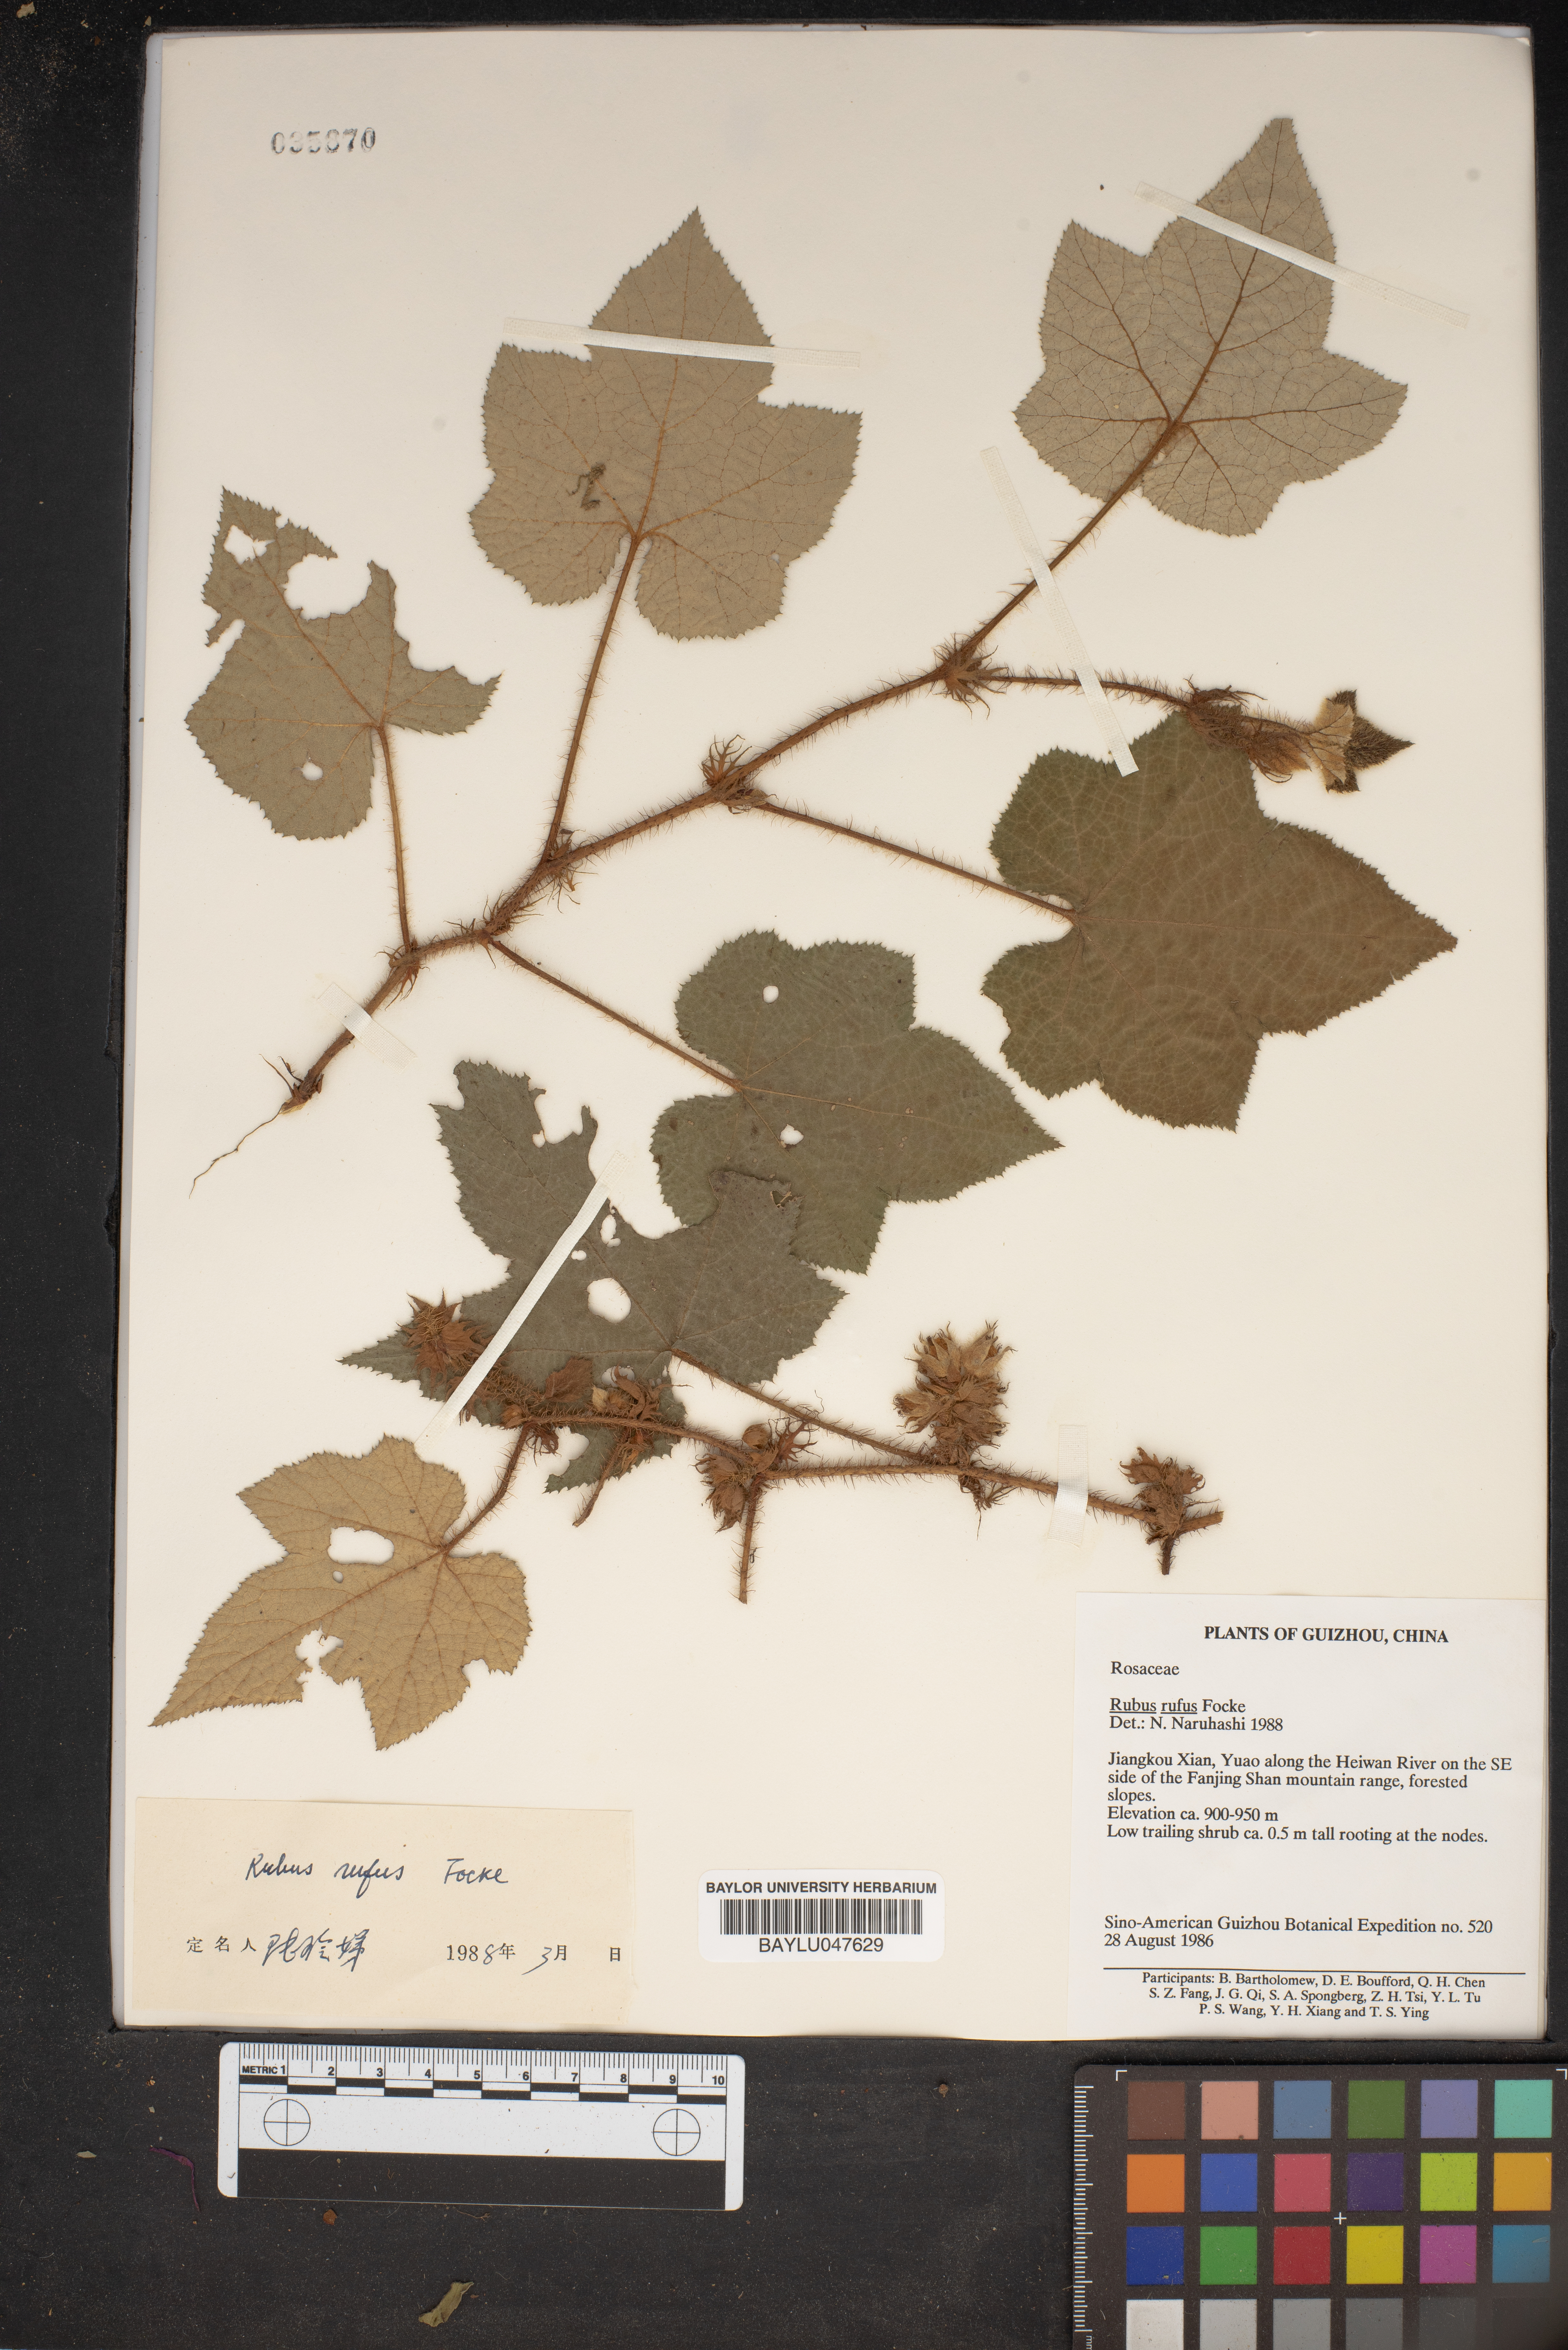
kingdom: Plantae
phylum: Tracheophyta
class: Magnoliopsida
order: Rosales
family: Rosaceae
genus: Rubus
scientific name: Rubus rufus
